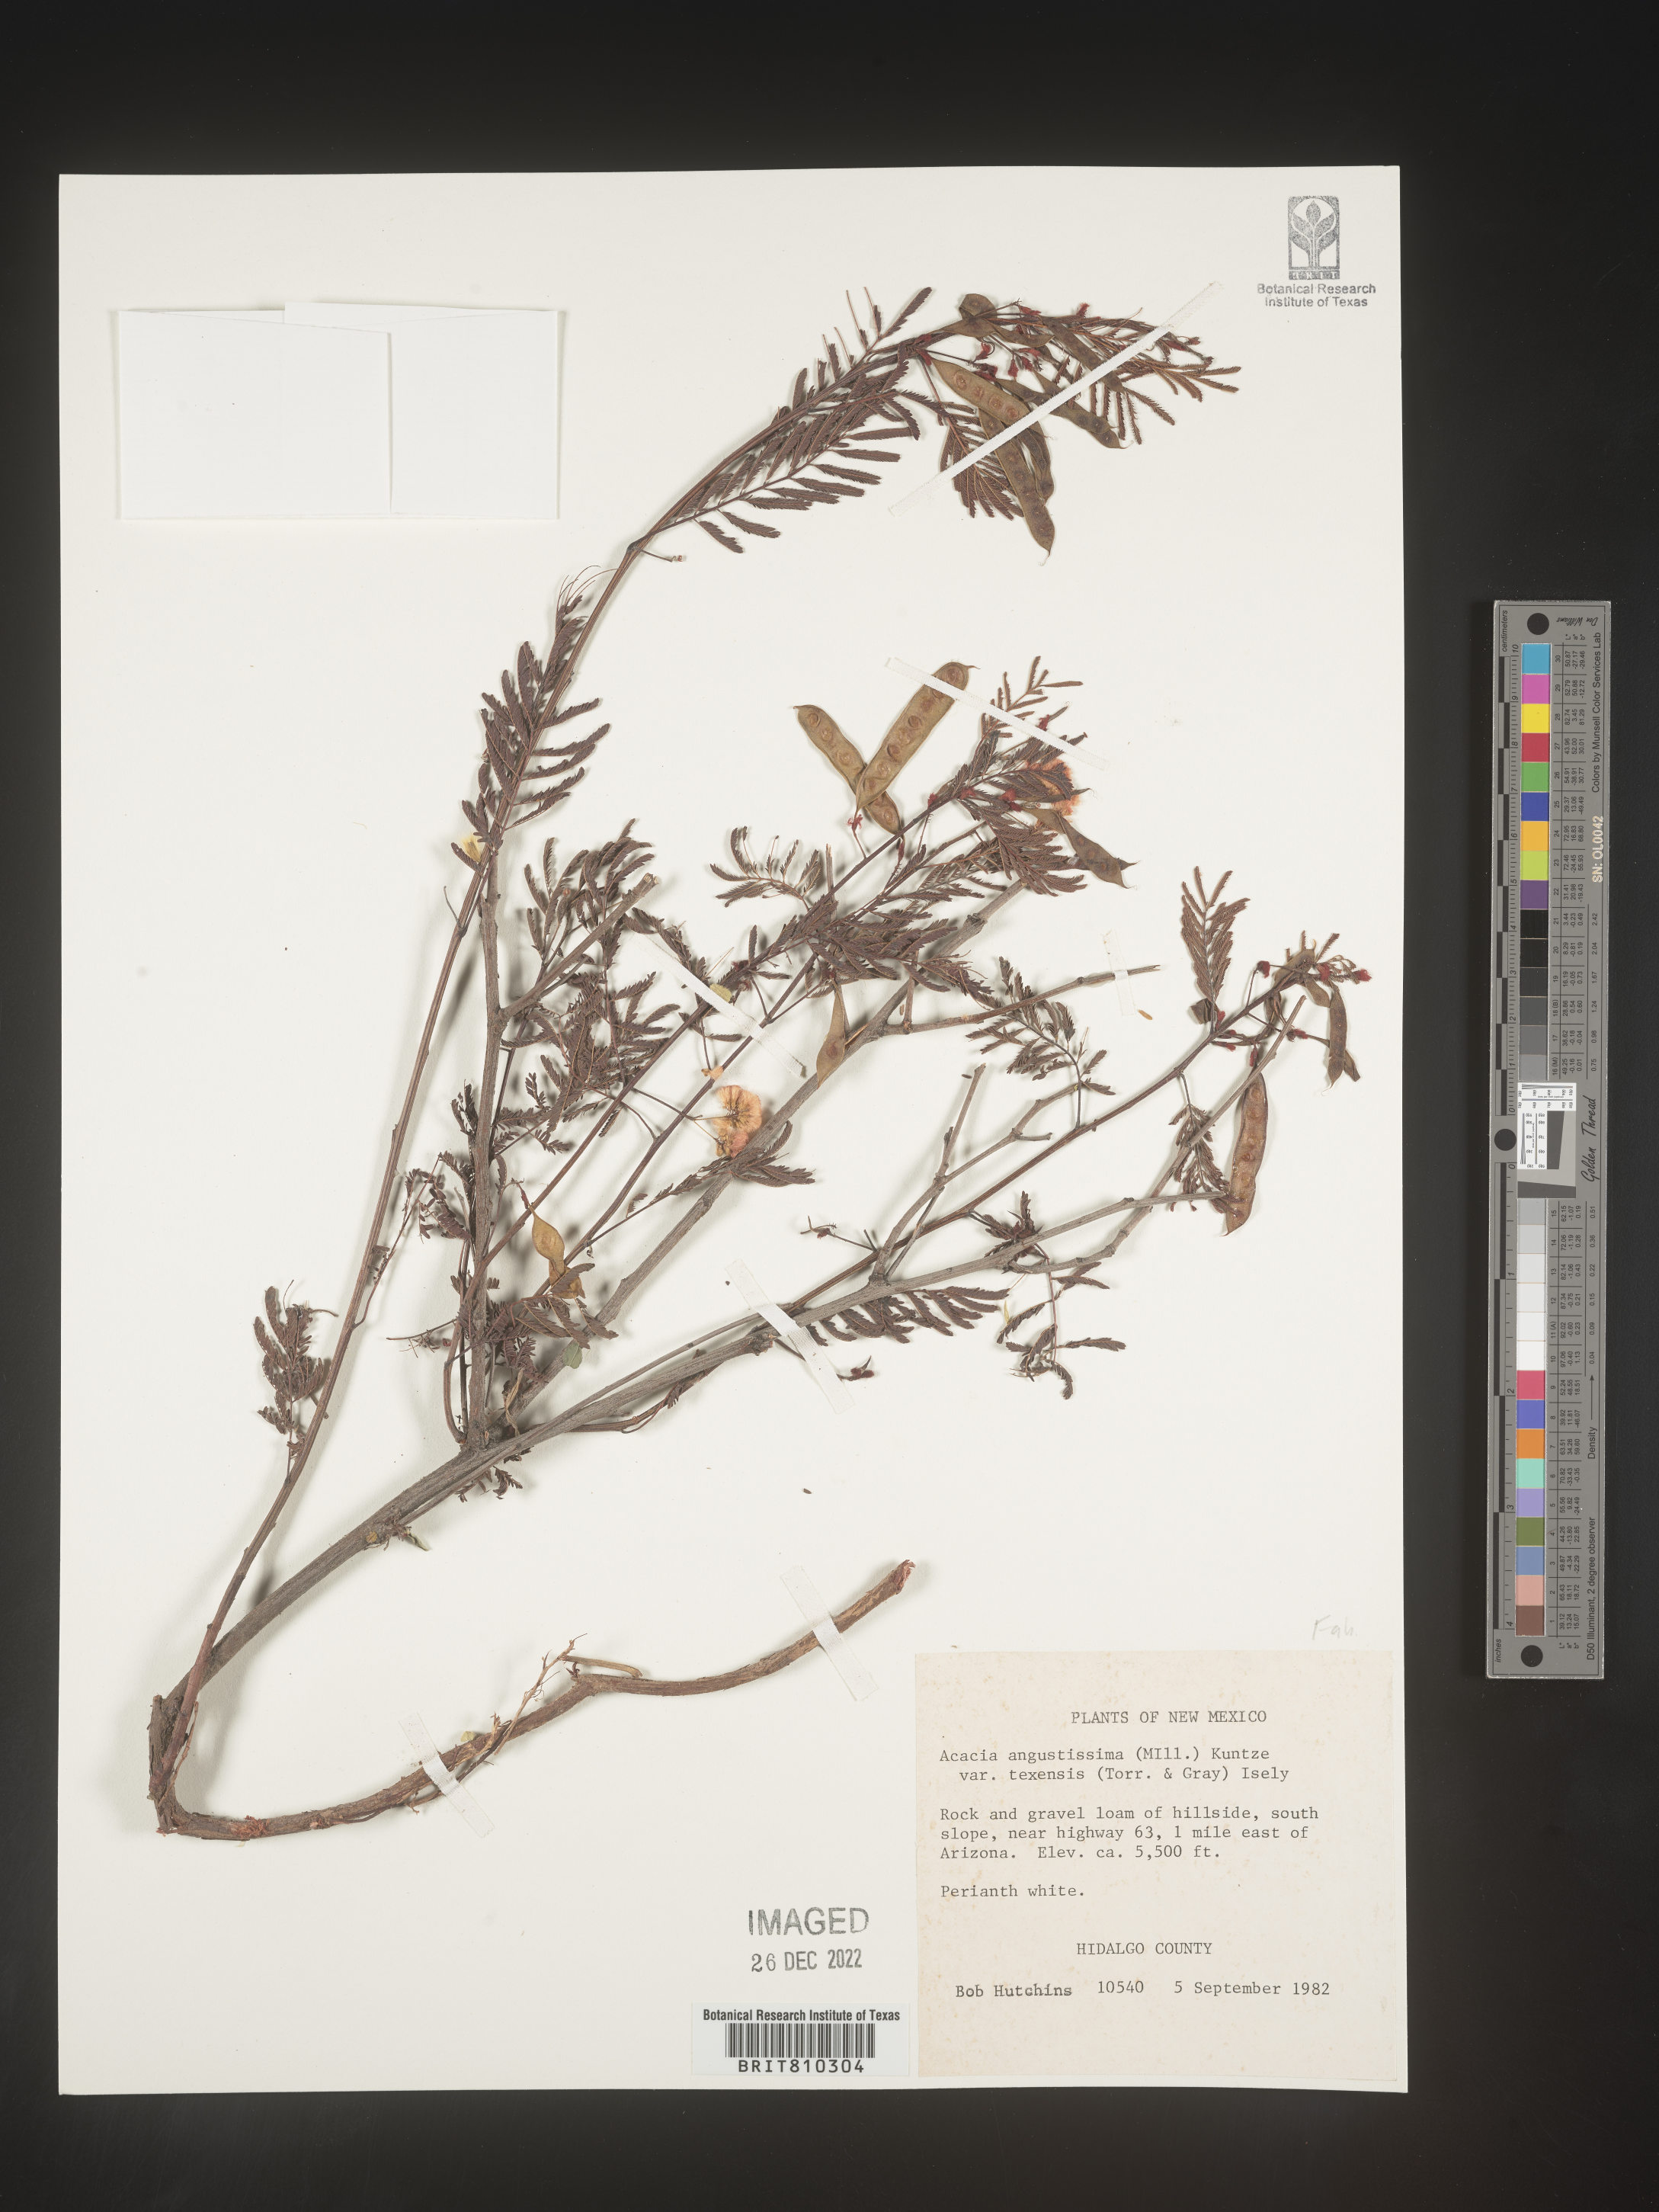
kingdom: Plantae
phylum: Tracheophyta
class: Magnoliopsida
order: Fabales
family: Fabaceae
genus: Acaciella
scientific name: Acaciella angustissima
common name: Prairie acacia
